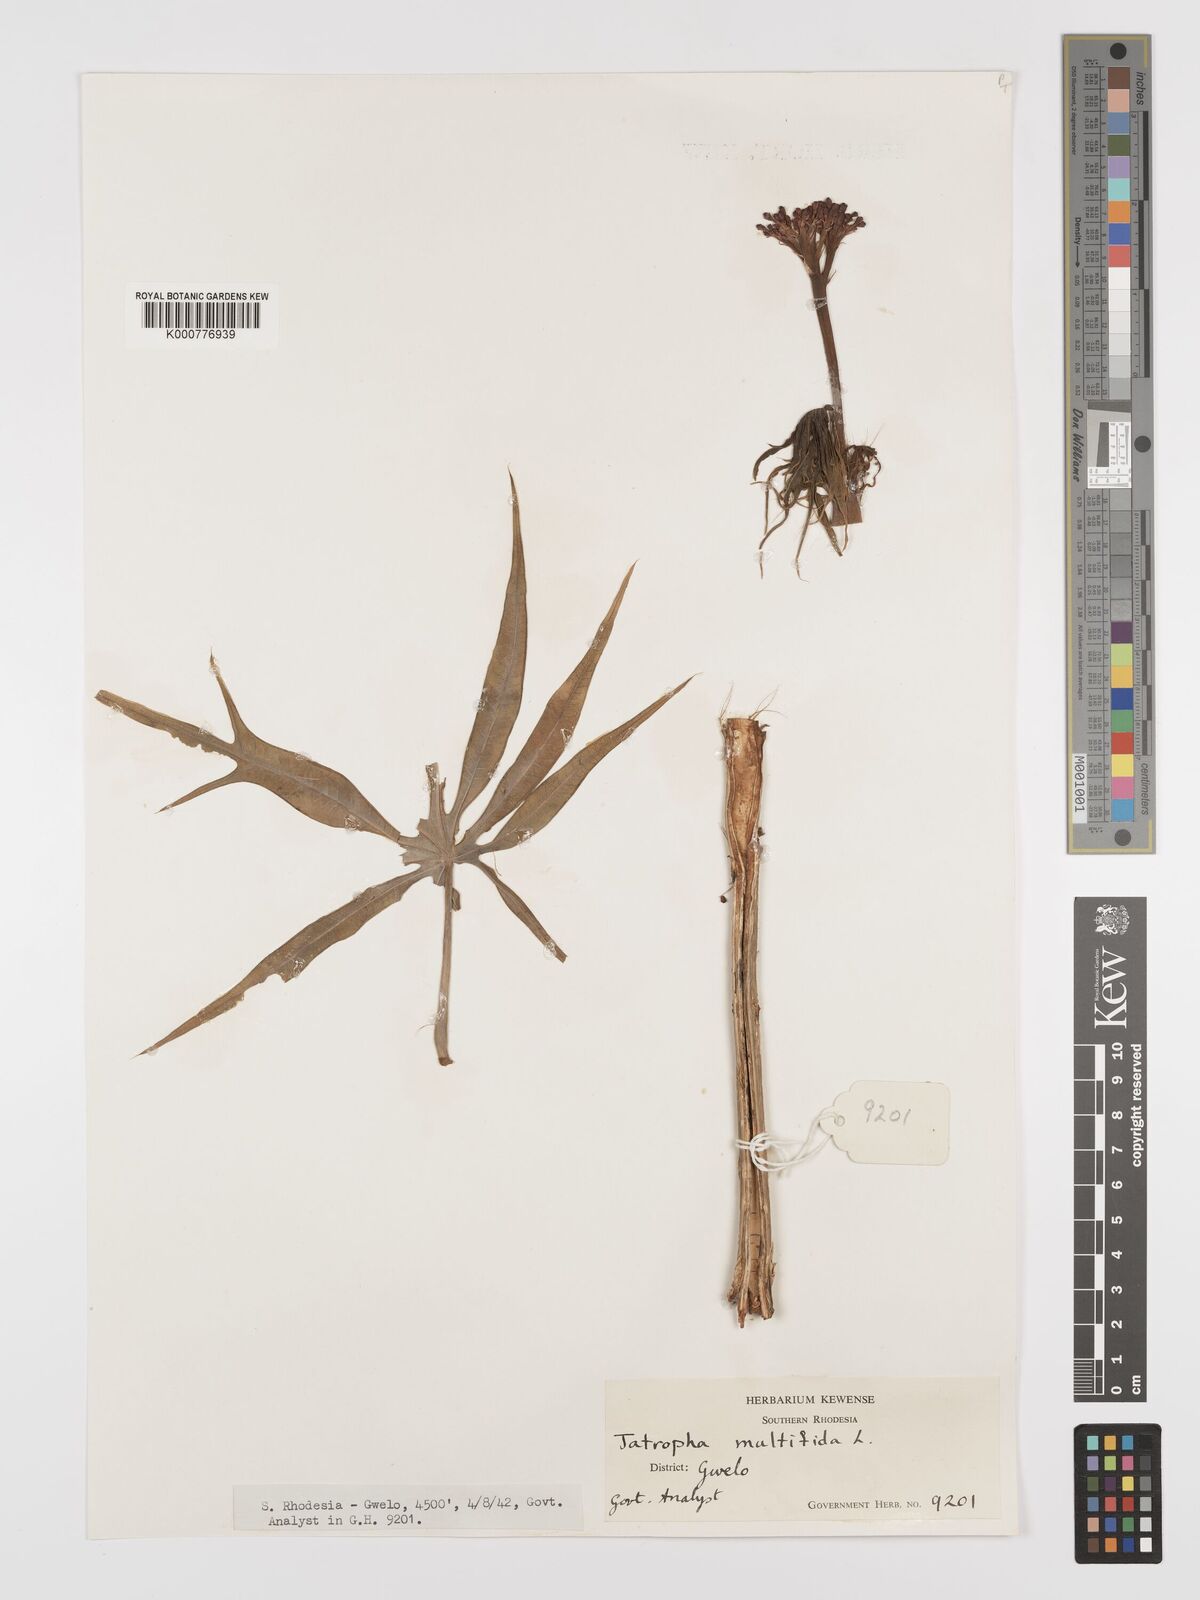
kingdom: Plantae
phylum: Tracheophyta
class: Magnoliopsida
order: Malpighiales
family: Euphorbiaceae
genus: Jatropha
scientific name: Jatropha multifida
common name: Coralbush
